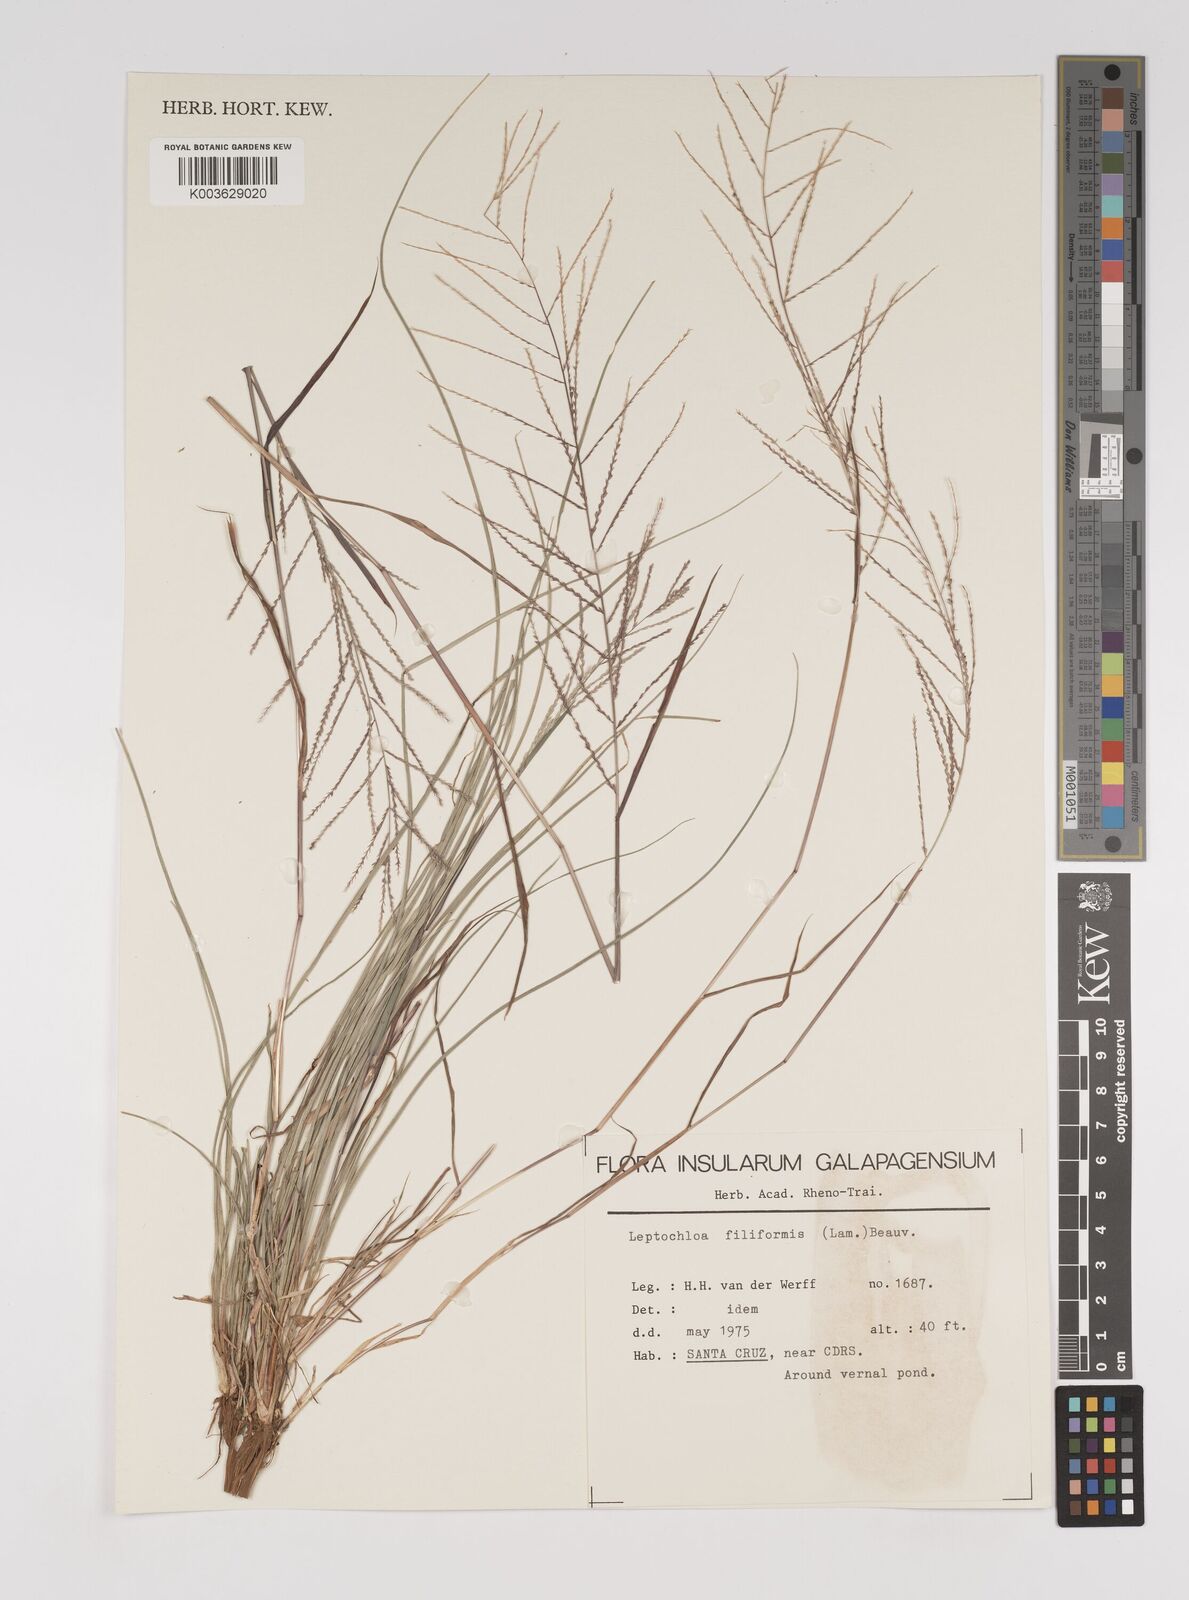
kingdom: Plantae
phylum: Tracheophyta
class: Liliopsida
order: Poales
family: Poaceae
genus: Leptochloa
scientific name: Leptochloa panicea
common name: Mucronate sprangletop
